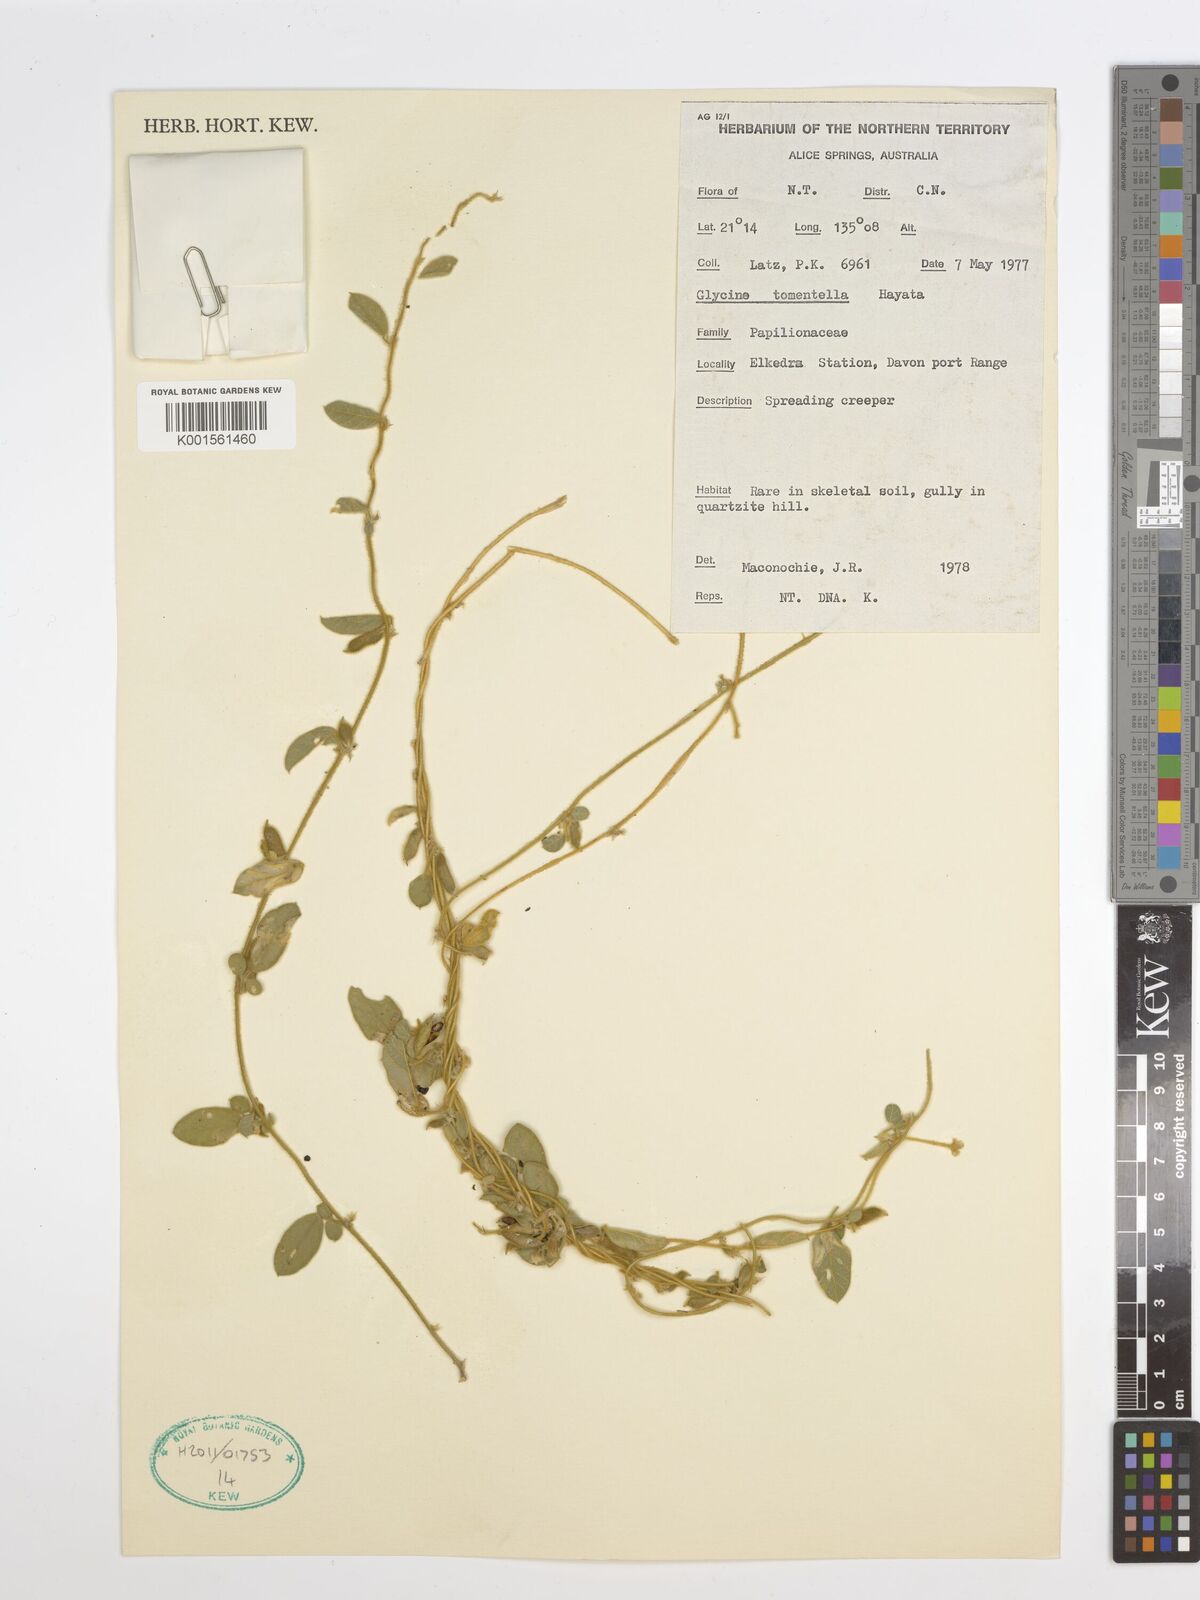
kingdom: Plantae
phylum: Tracheophyta
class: Magnoliopsida
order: Fabales
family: Fabaceae
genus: Glycine
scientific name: Glycine tomentella
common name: Hairy glycine
